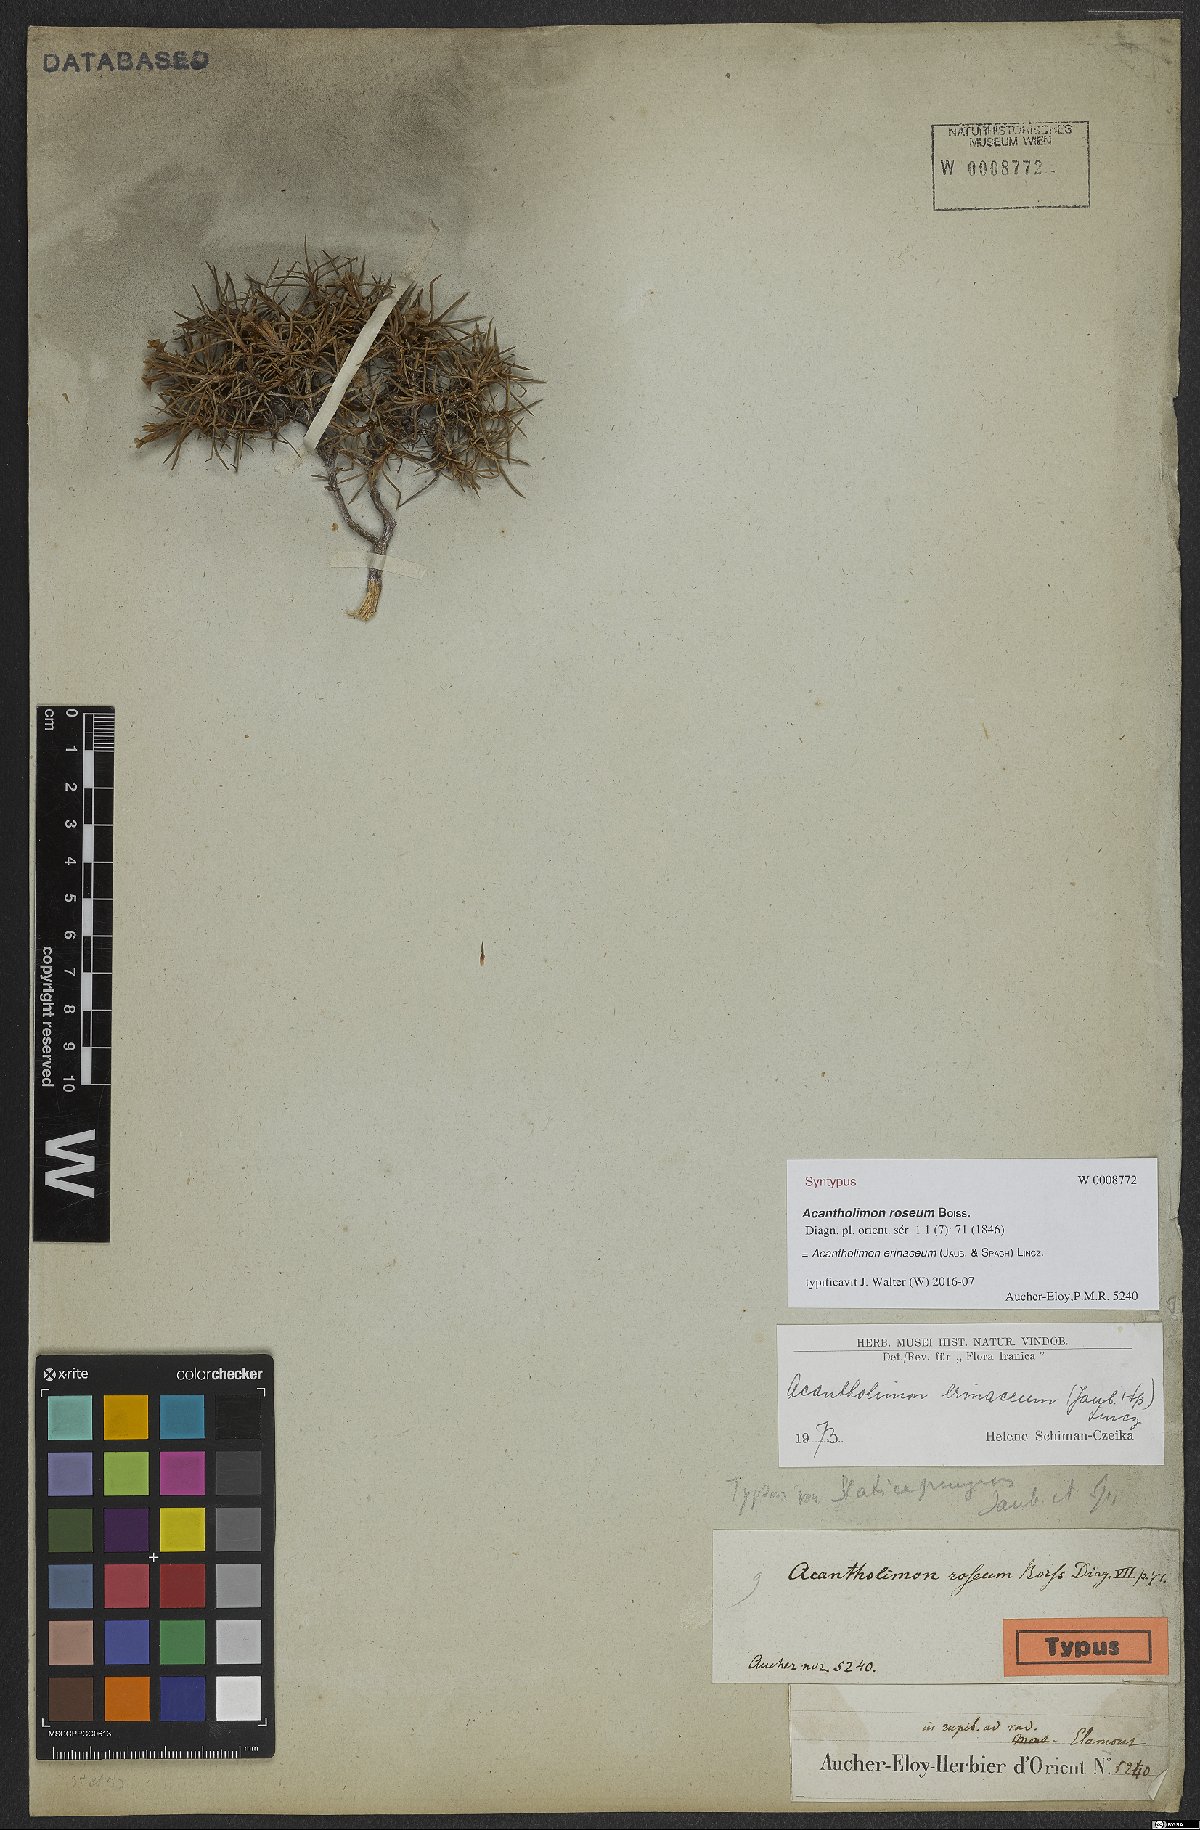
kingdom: Plantae
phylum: Tracheophyta
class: Magnoliopsida
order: Caryophyllales
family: Plumbaginaceae
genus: Acantholimon
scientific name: Acantholimon erinaceum
